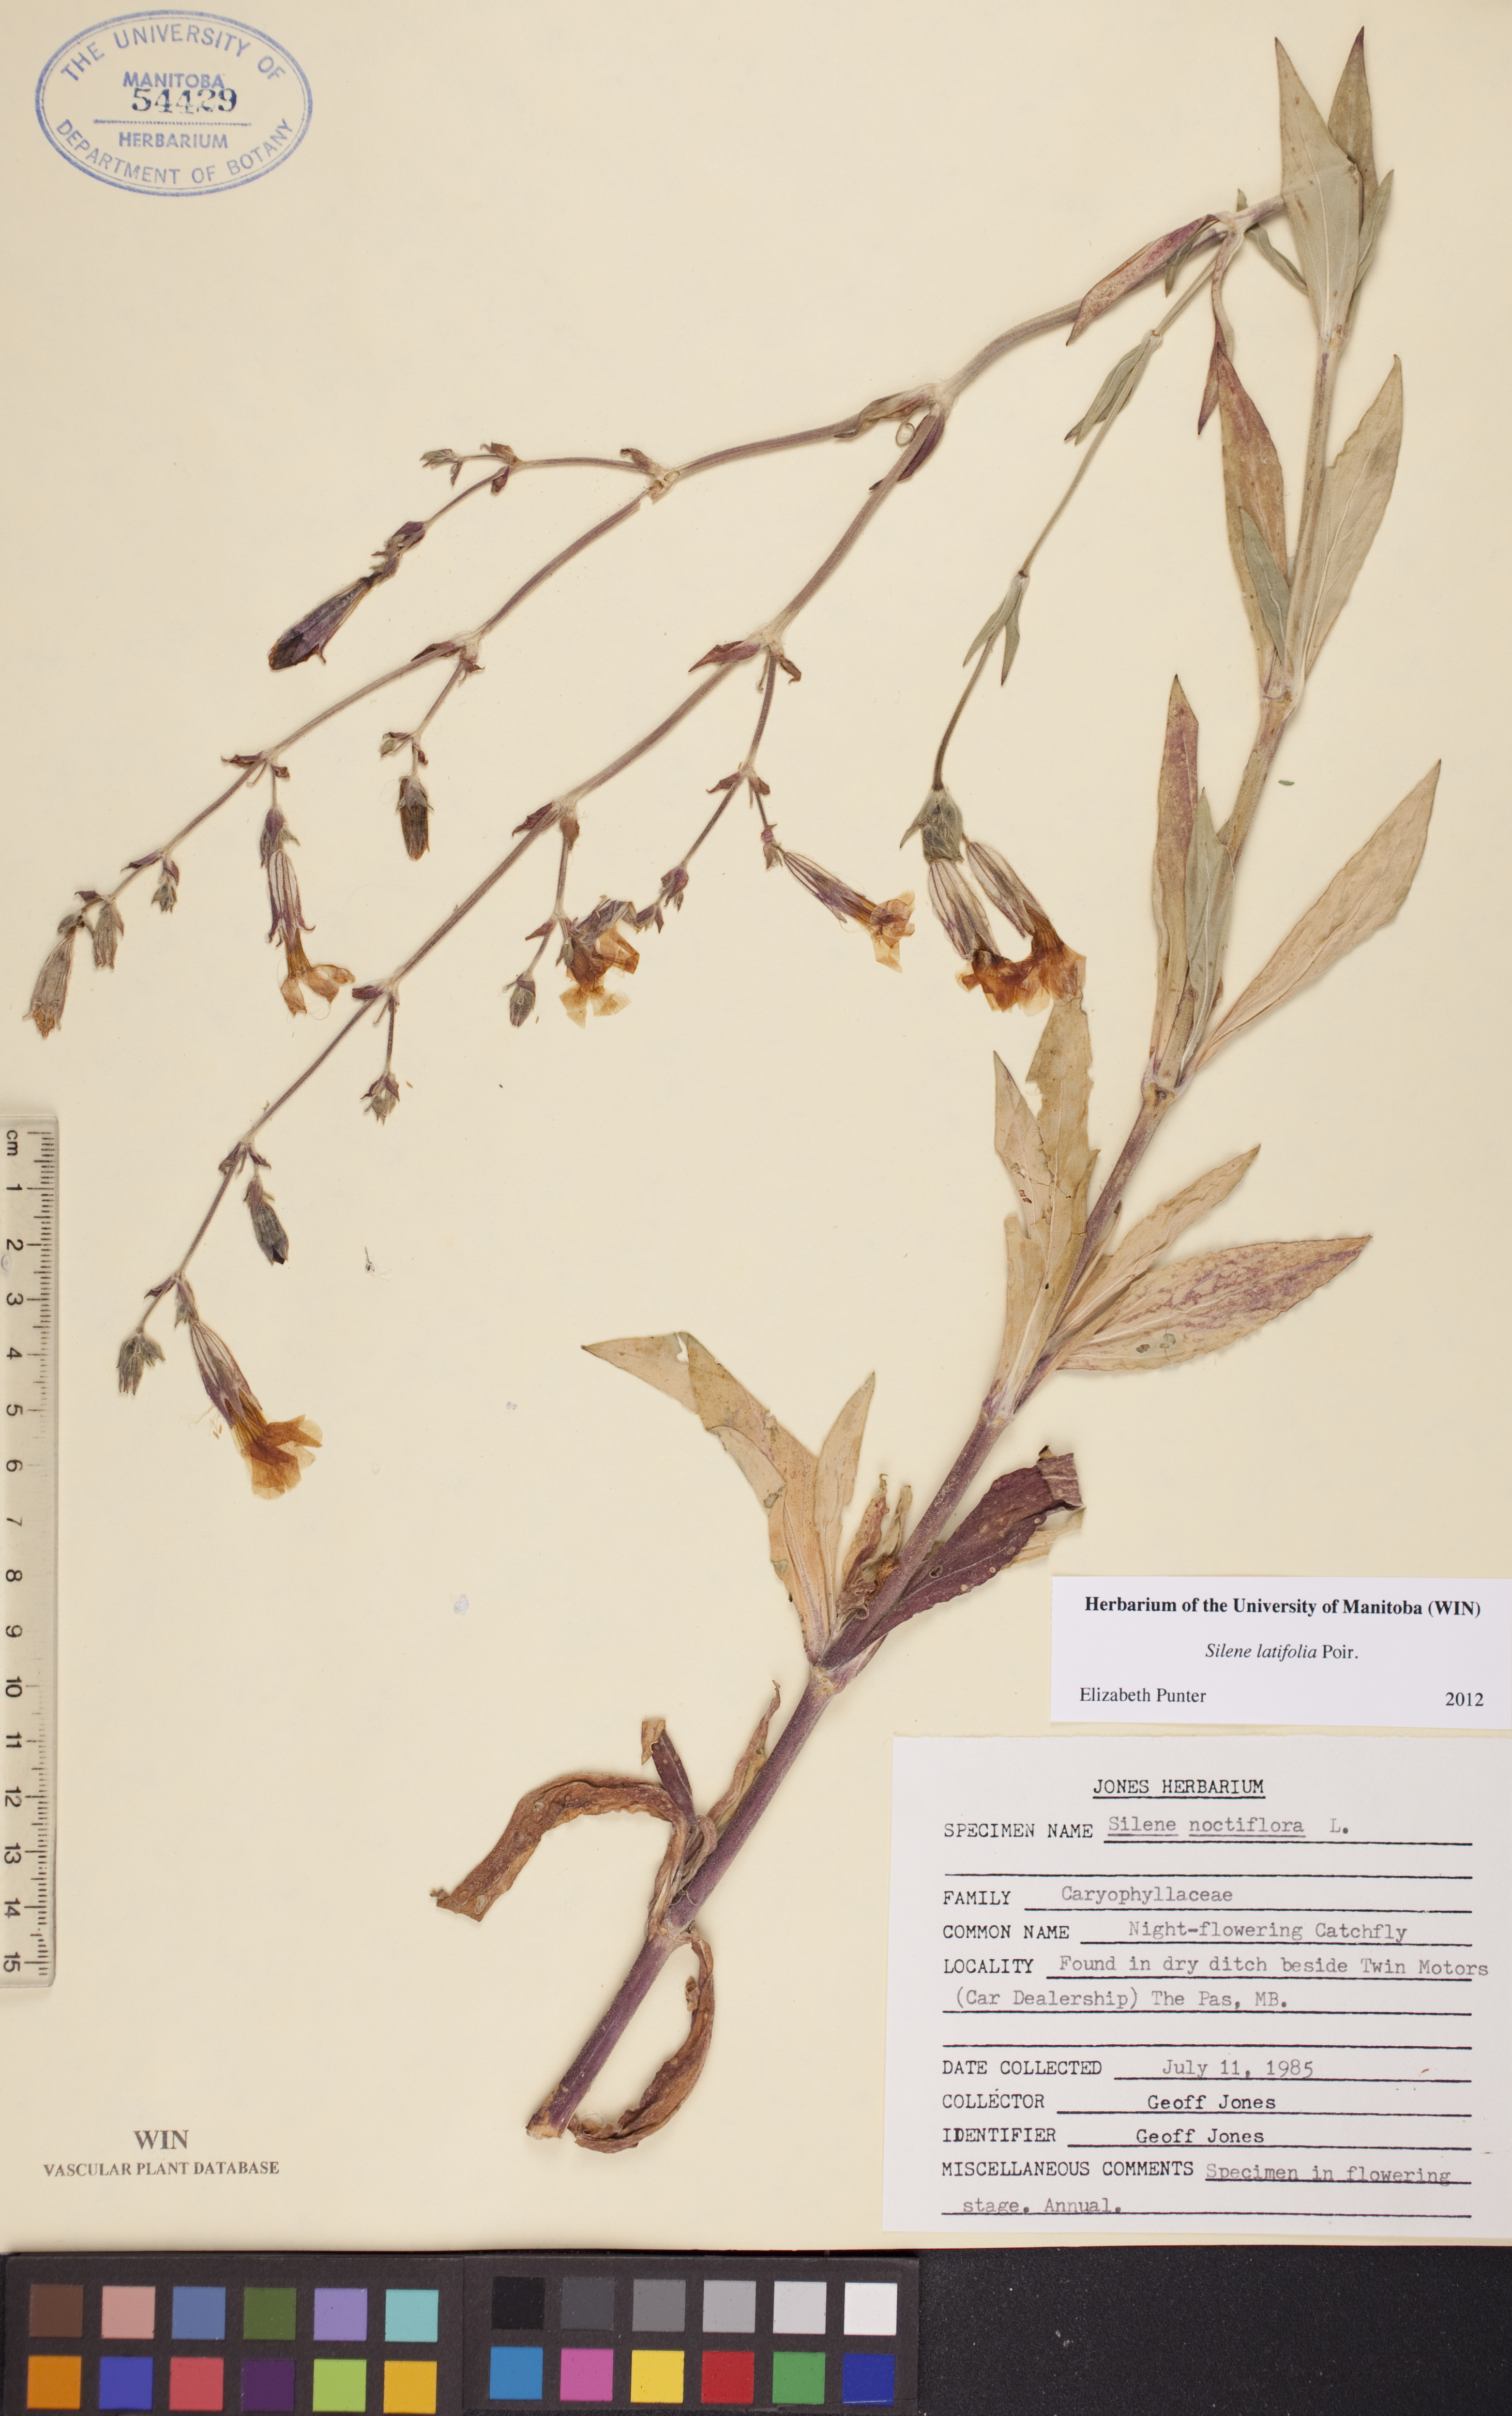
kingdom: Plantae
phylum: Tracheophyta
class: Magnoliopsida
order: Caryophyllales
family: Caryophyllaceae
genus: Silene
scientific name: Silene latifolia
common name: White campion
